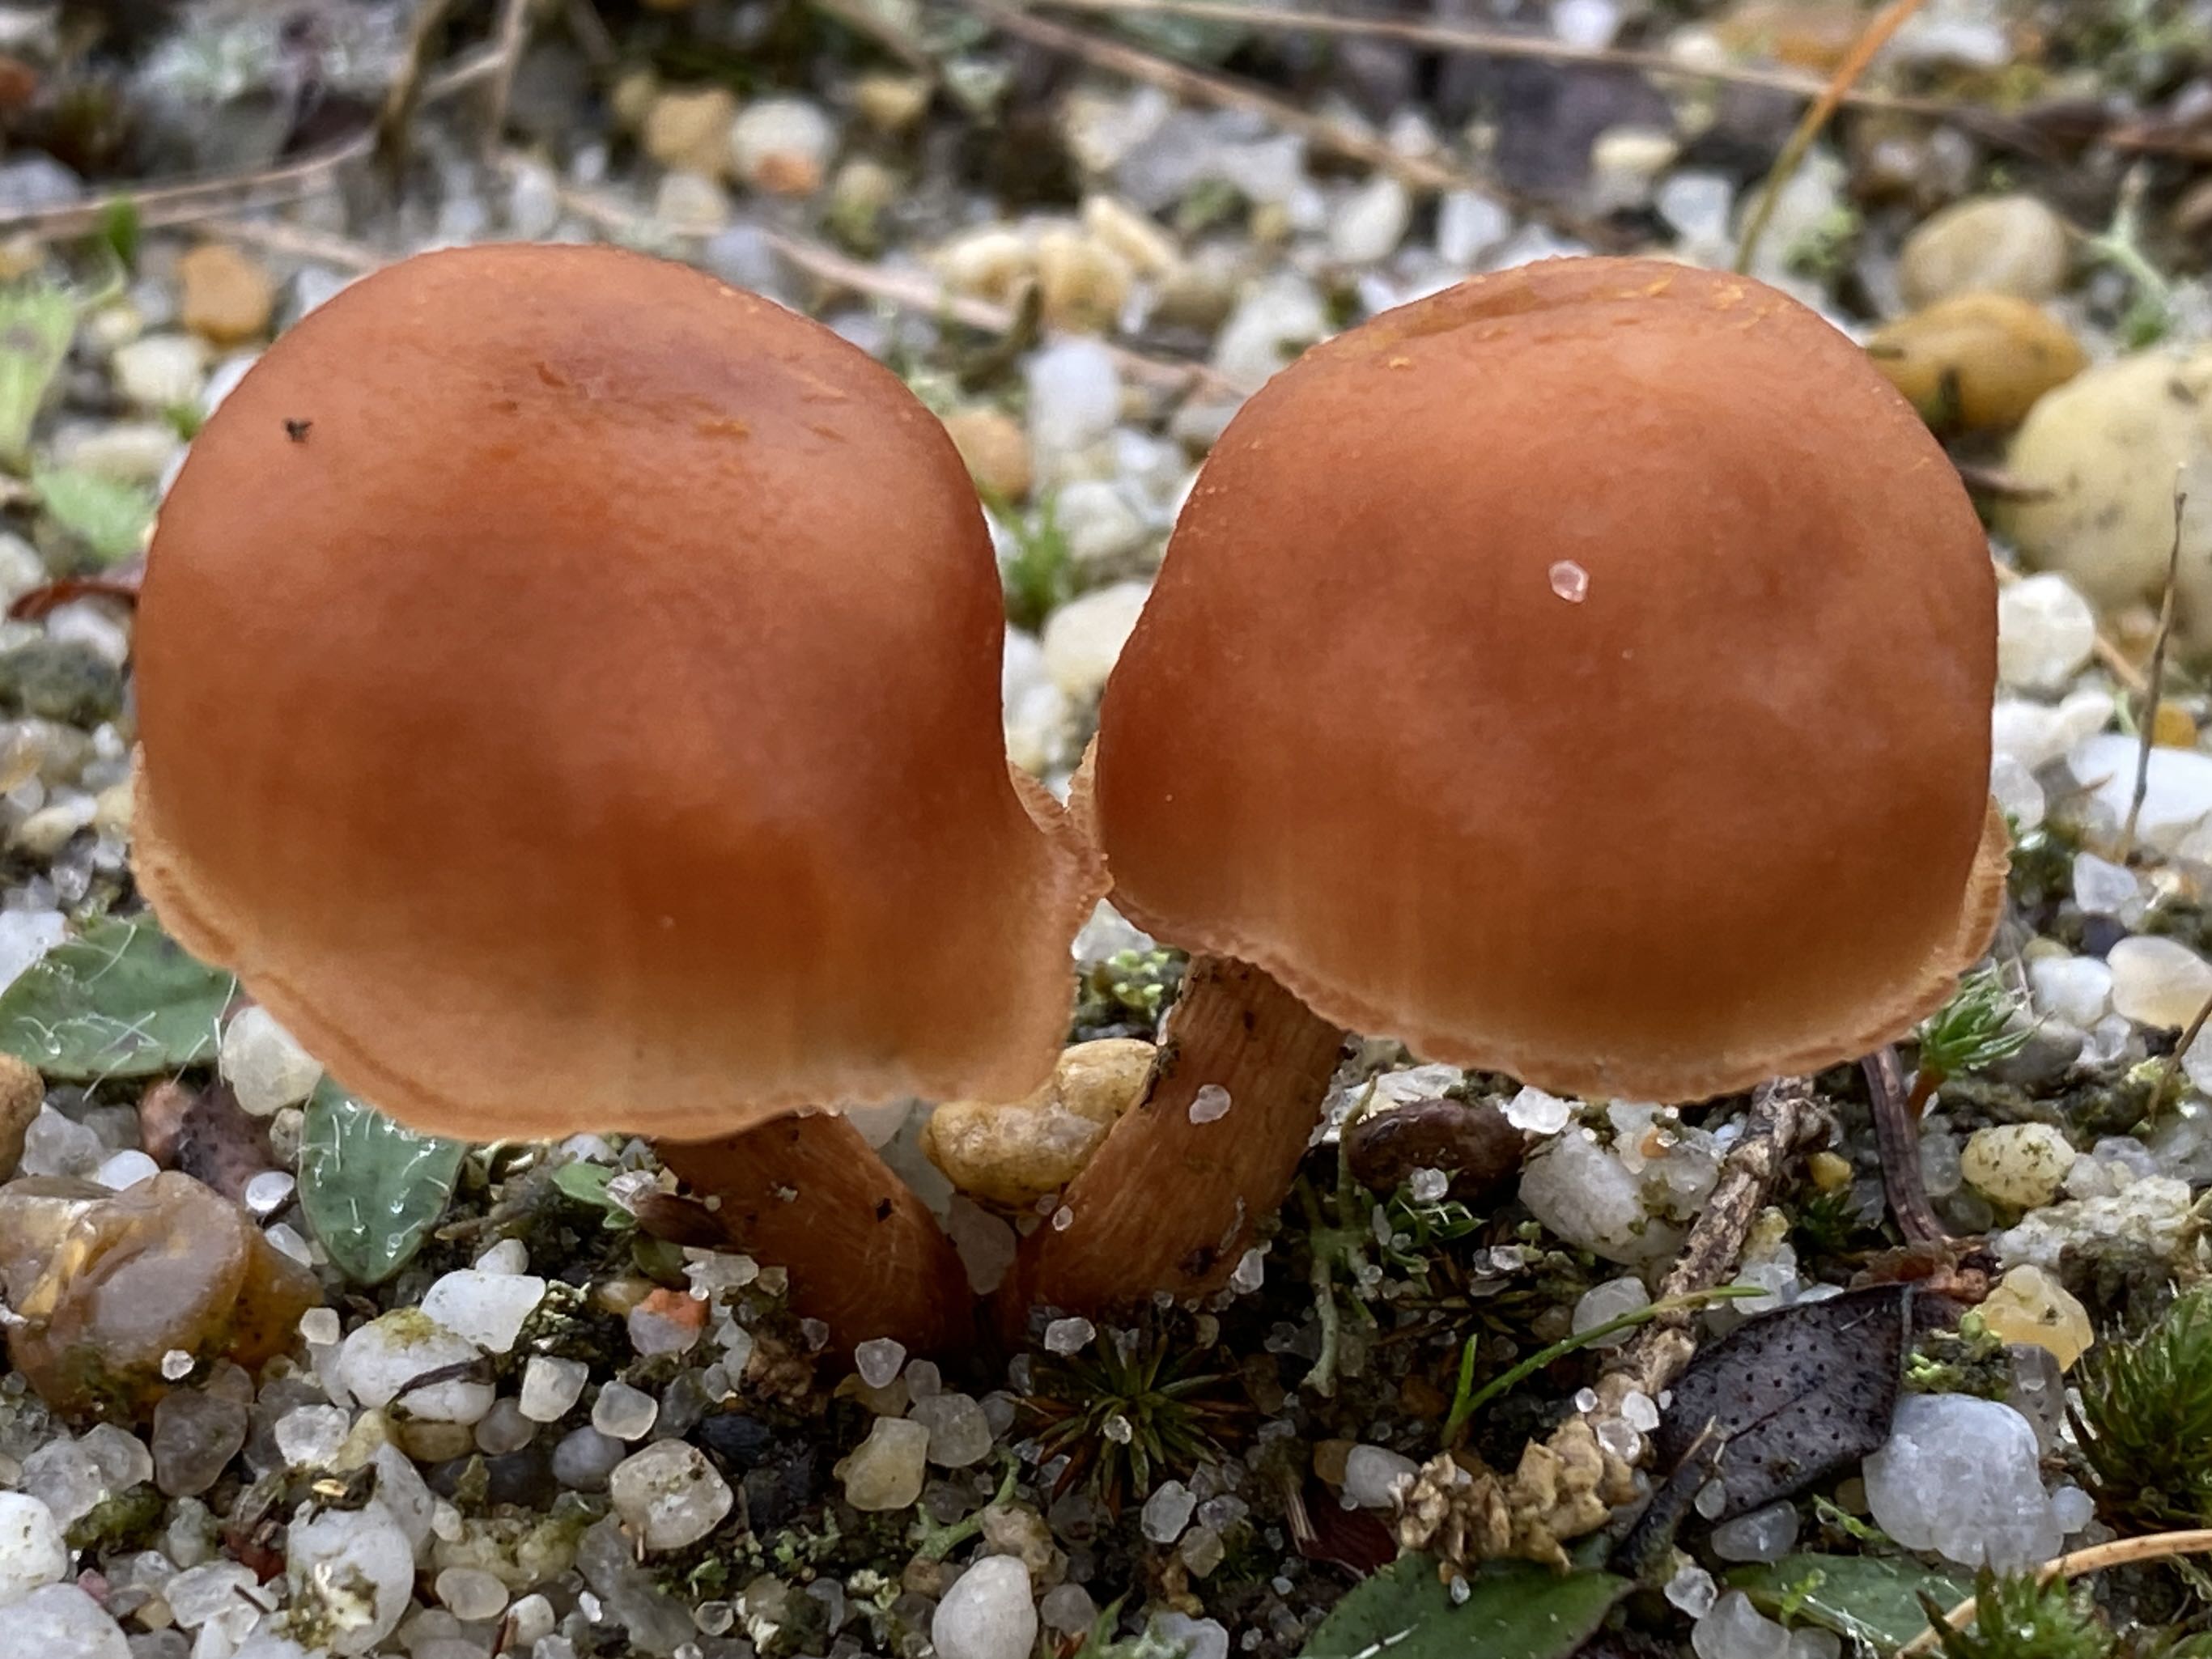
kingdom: Fungi
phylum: Basidiomycota
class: Agaricomycetes
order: Agaricales
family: Hydnangiaceae
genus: Laccaria
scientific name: Laccaria proxima
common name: stor ametysthat
